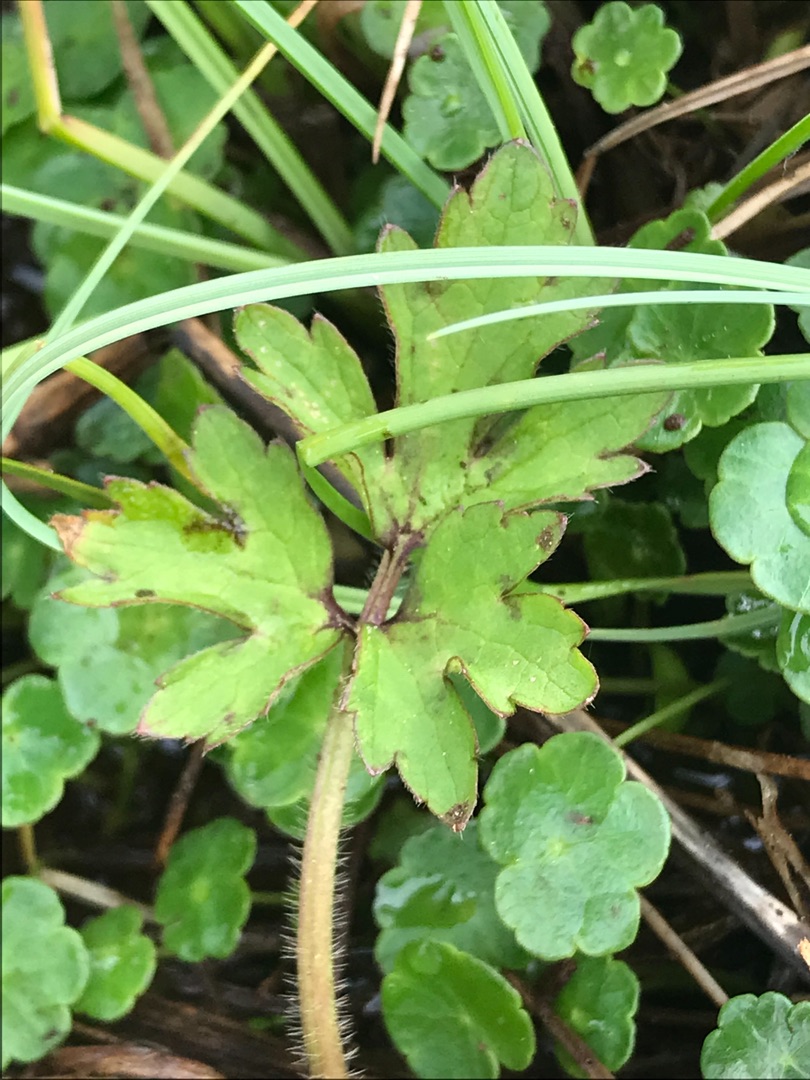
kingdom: Plantae
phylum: Tracheophyta
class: Magnoliopsida
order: Ranunculales
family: Ranunculaceae
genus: Ranunculus
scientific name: Ranunculus repens
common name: Lav ranunkel
